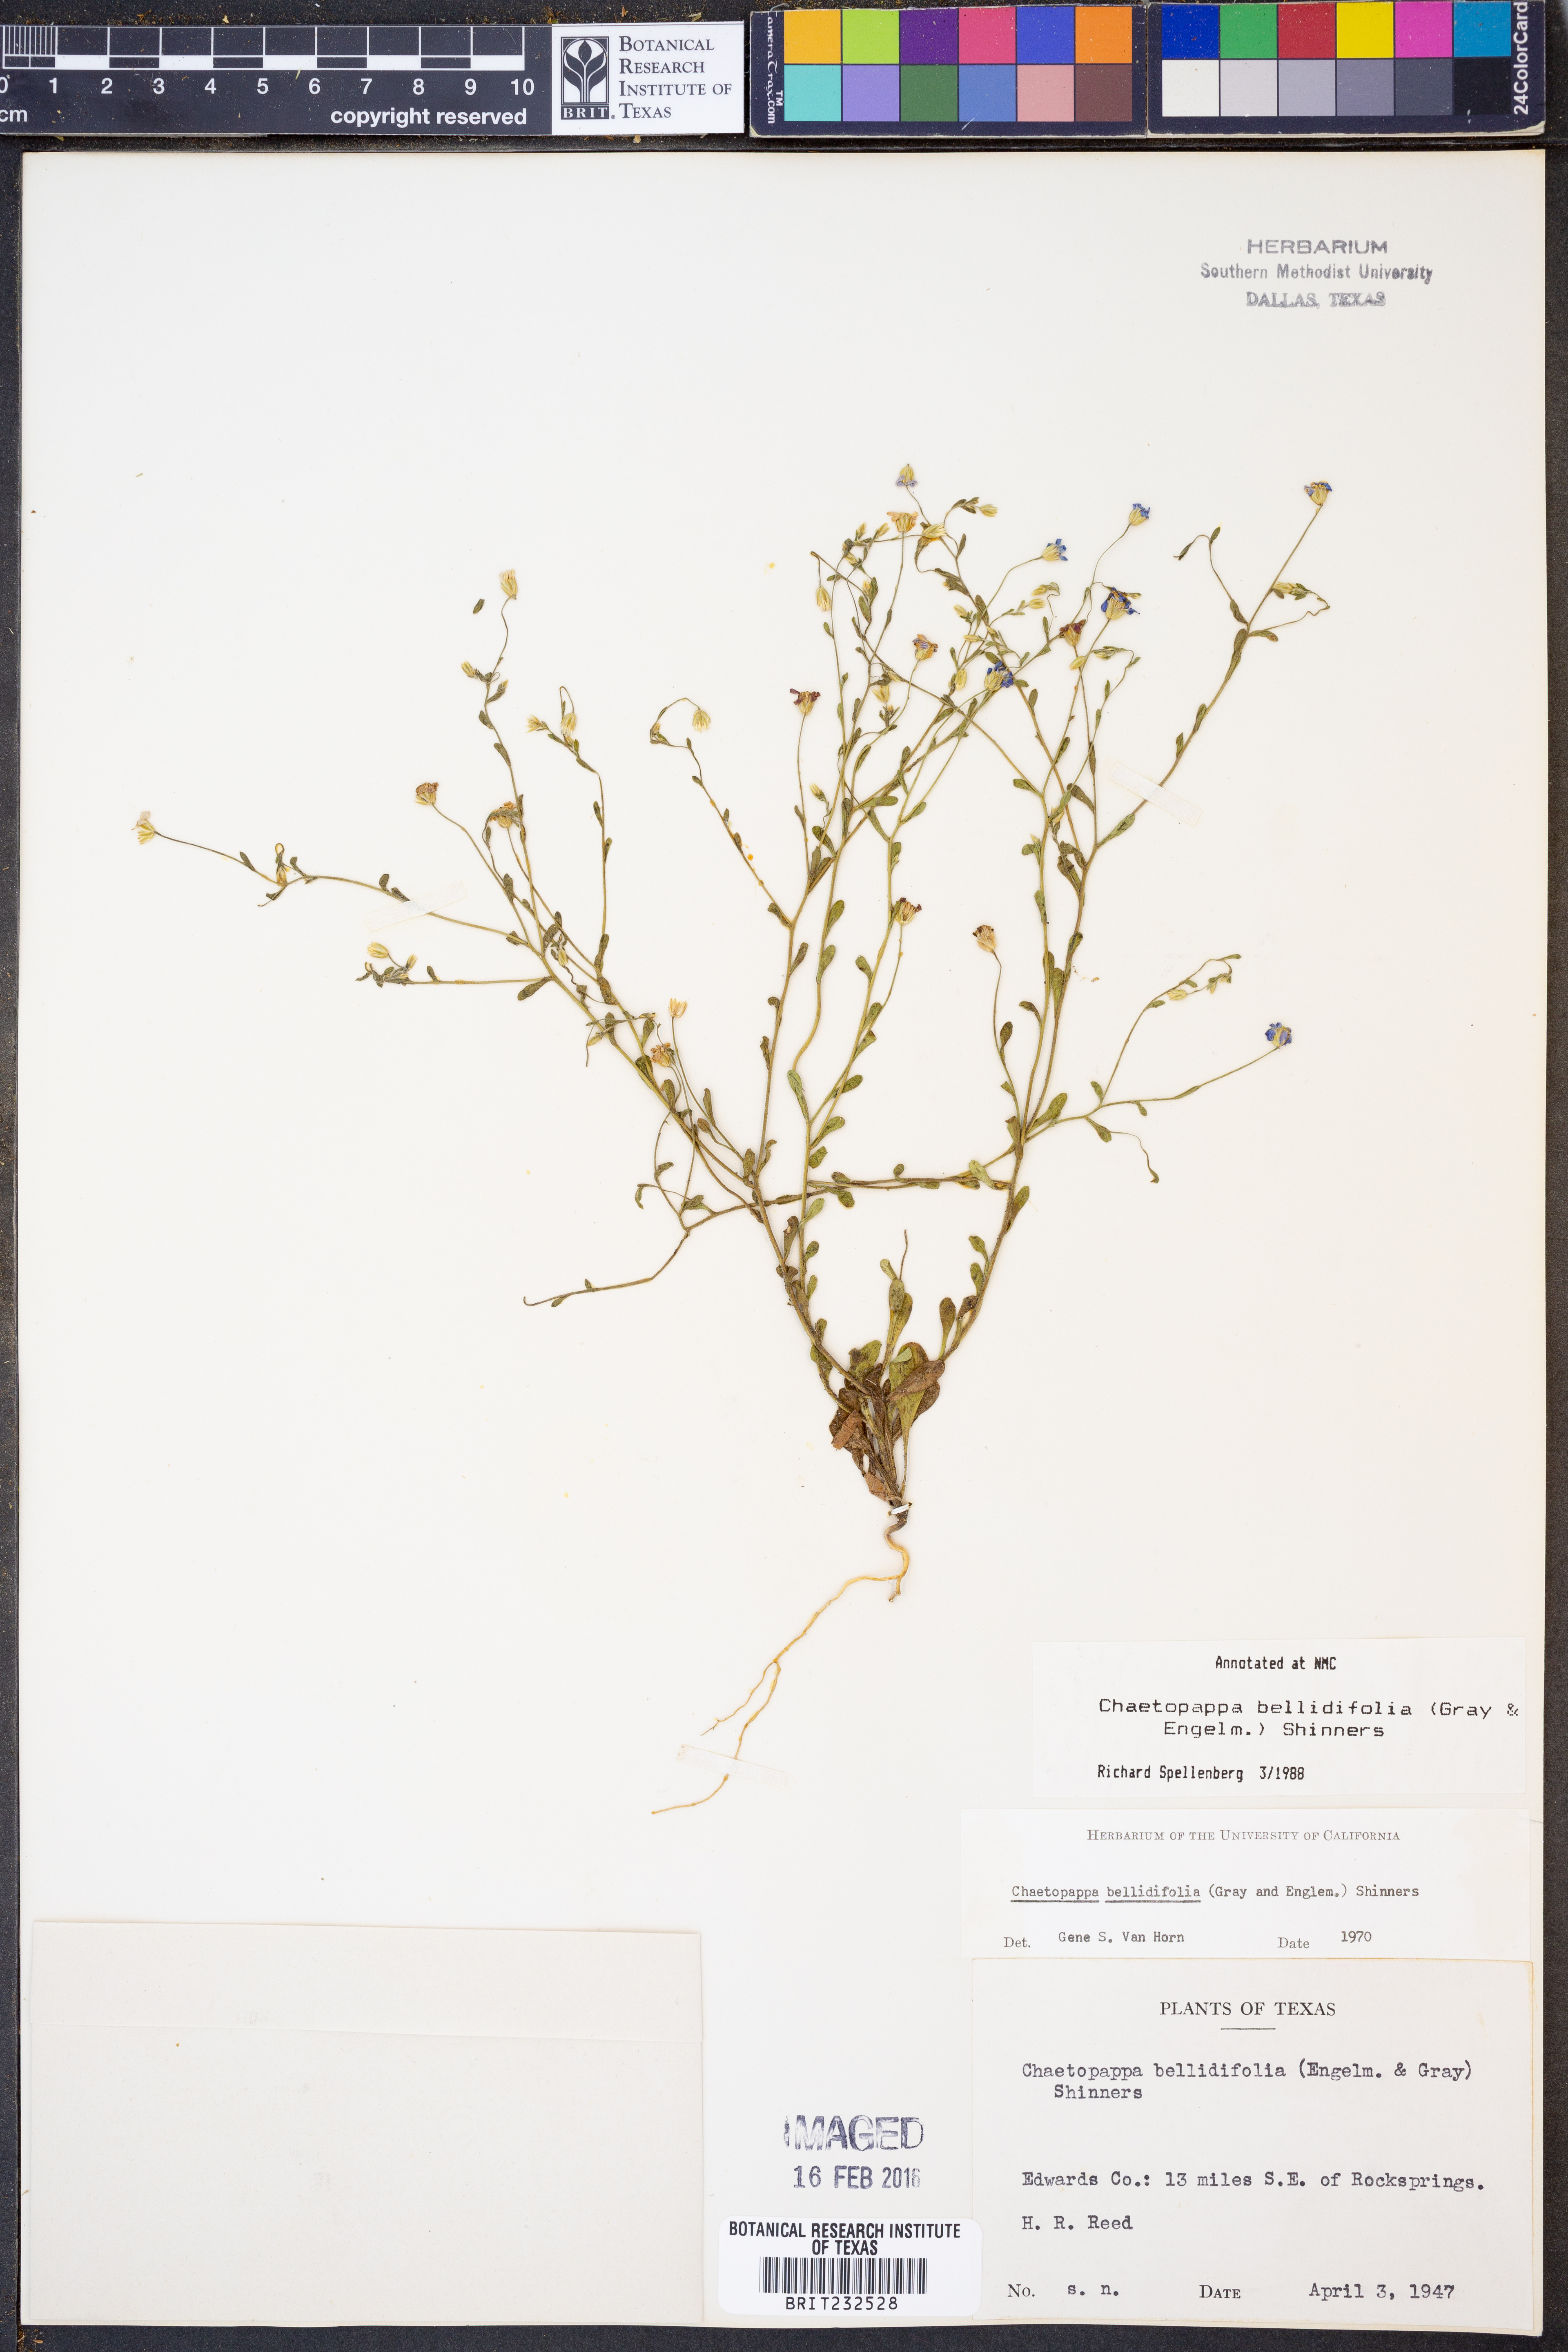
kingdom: Plantae
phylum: Tracheophyta
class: Magnoliopsida
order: Asterales
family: Asteraceae
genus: Chaetopappa
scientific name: Chaetopappa bellidifolia
